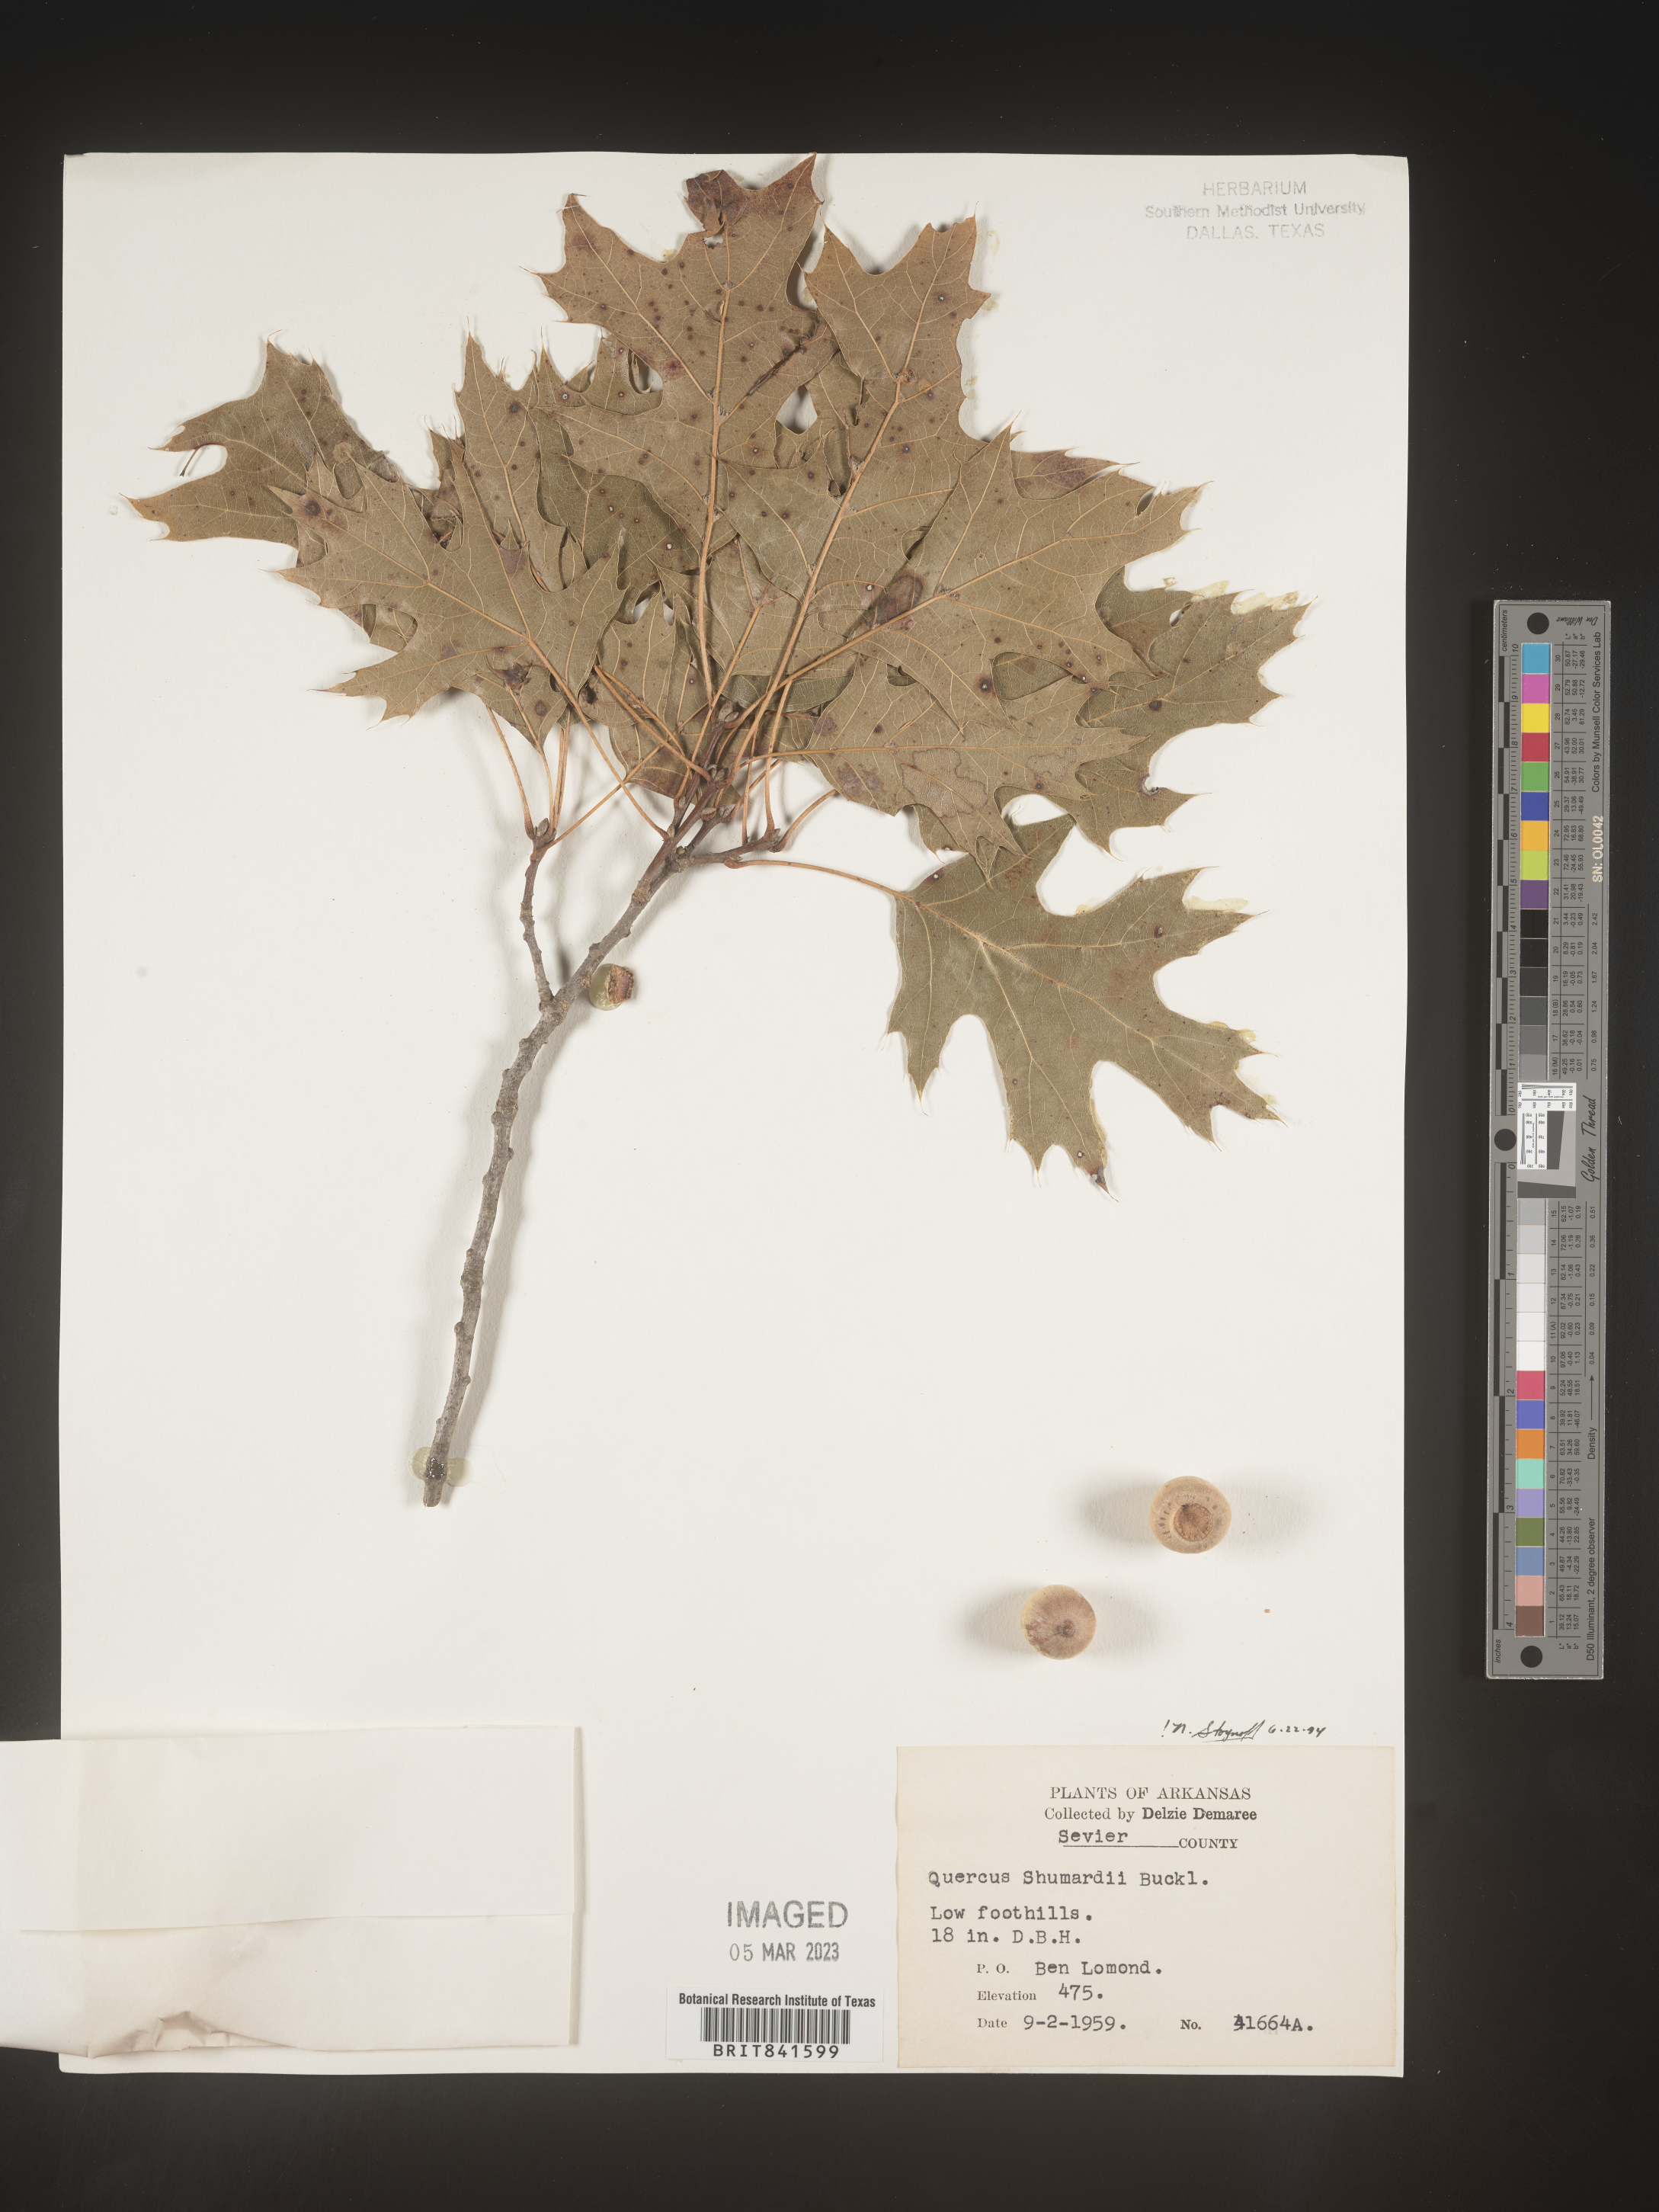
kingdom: Plantae
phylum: Tracheophyta
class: Magnoliopsida
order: Fagales
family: Fagaceae
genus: Quercus
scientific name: Quercus shumardii
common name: Shumard oak
